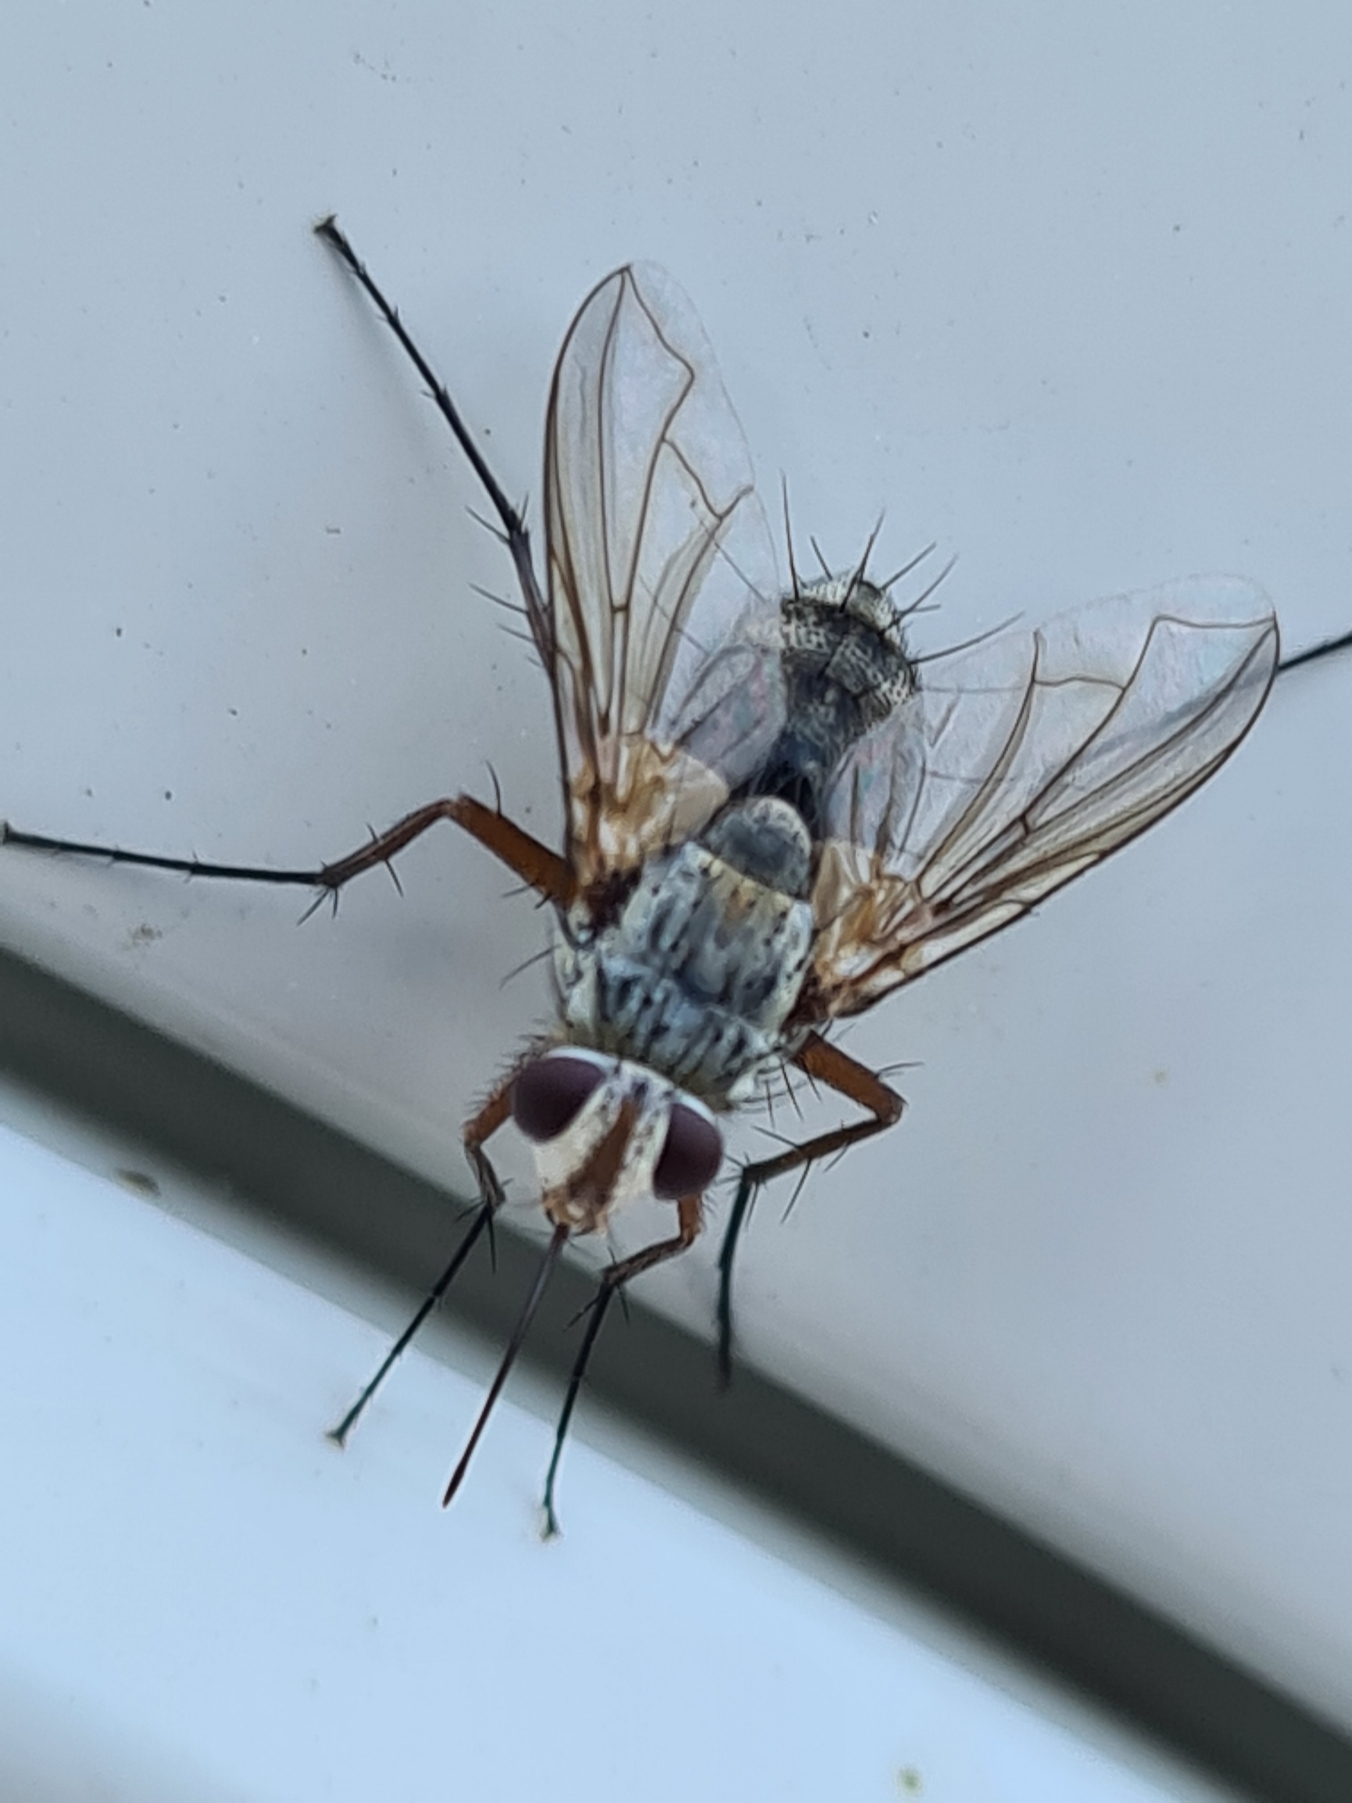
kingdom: Animalia
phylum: Arthropoda
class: Insecta
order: Diptera
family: Tachinidae
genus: Prosena
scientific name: Prosena siberita
